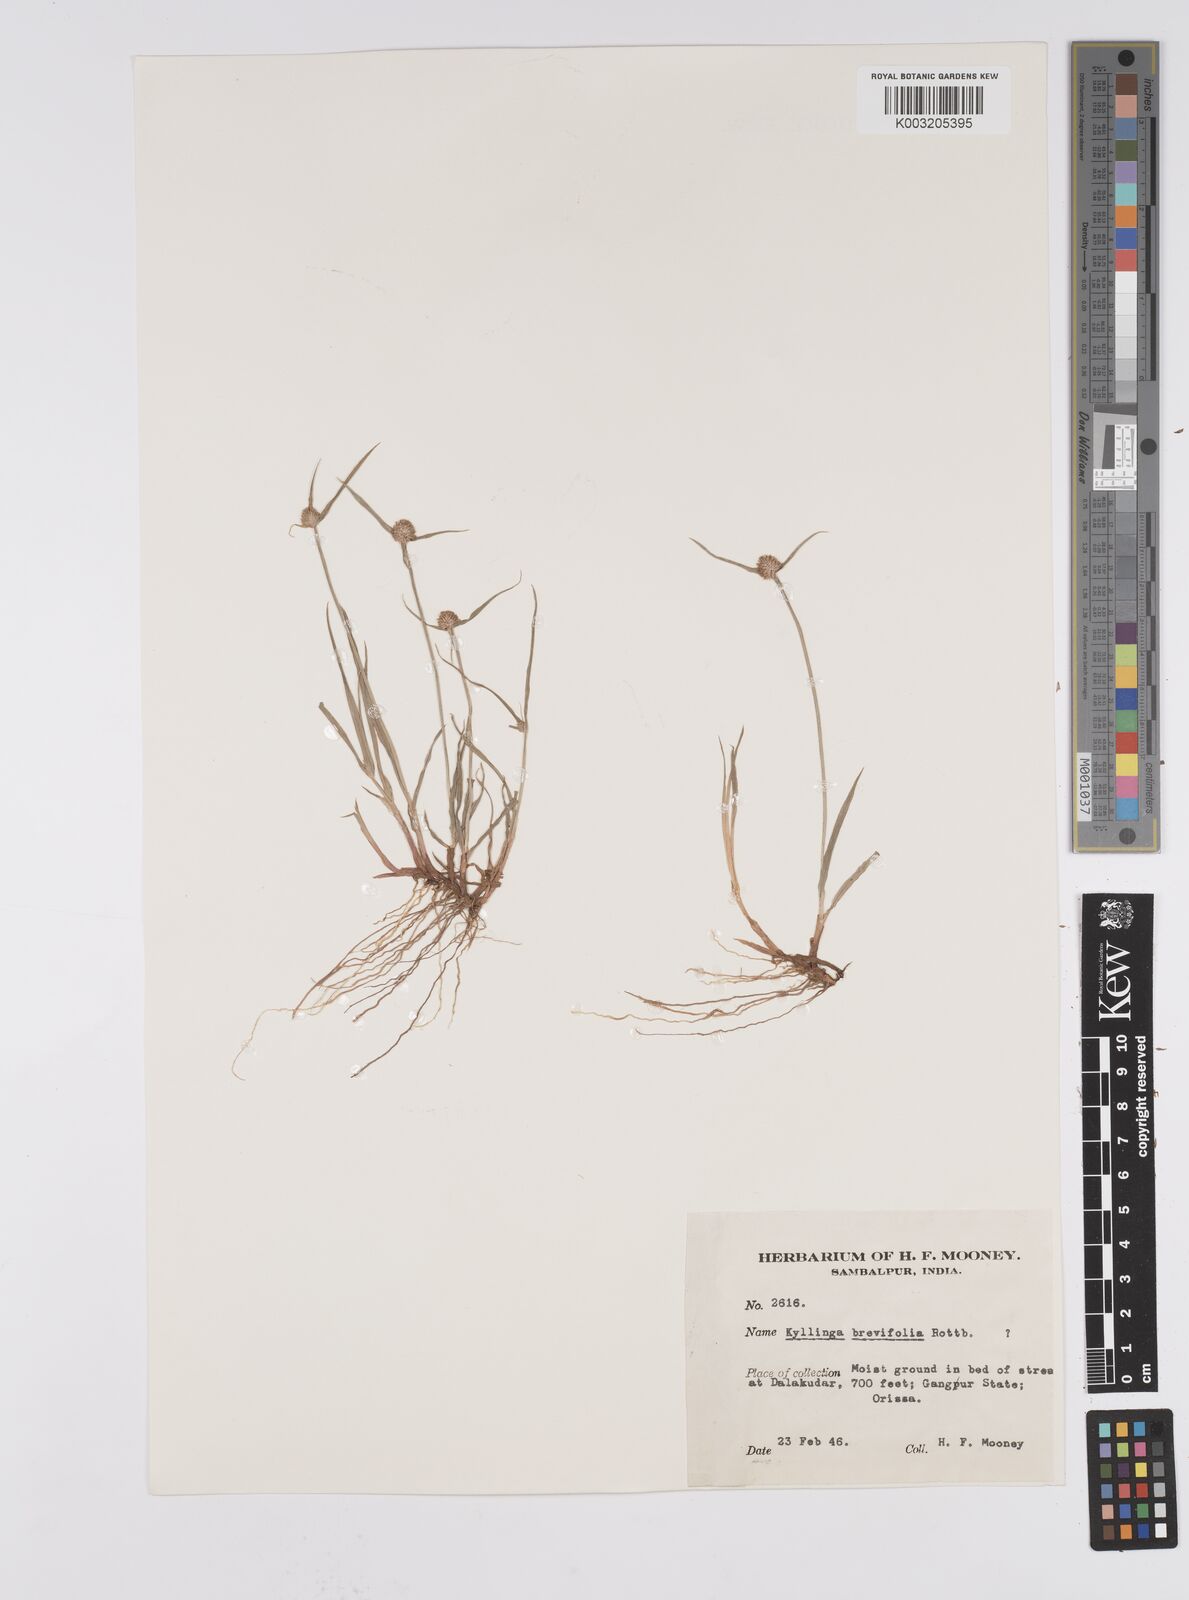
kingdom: Plantae
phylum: Tracheophyta
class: Liliopsida
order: Poales
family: Cyperaceae
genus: Cyperus
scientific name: Cyperus brevifolius
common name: Globe kyllinga
